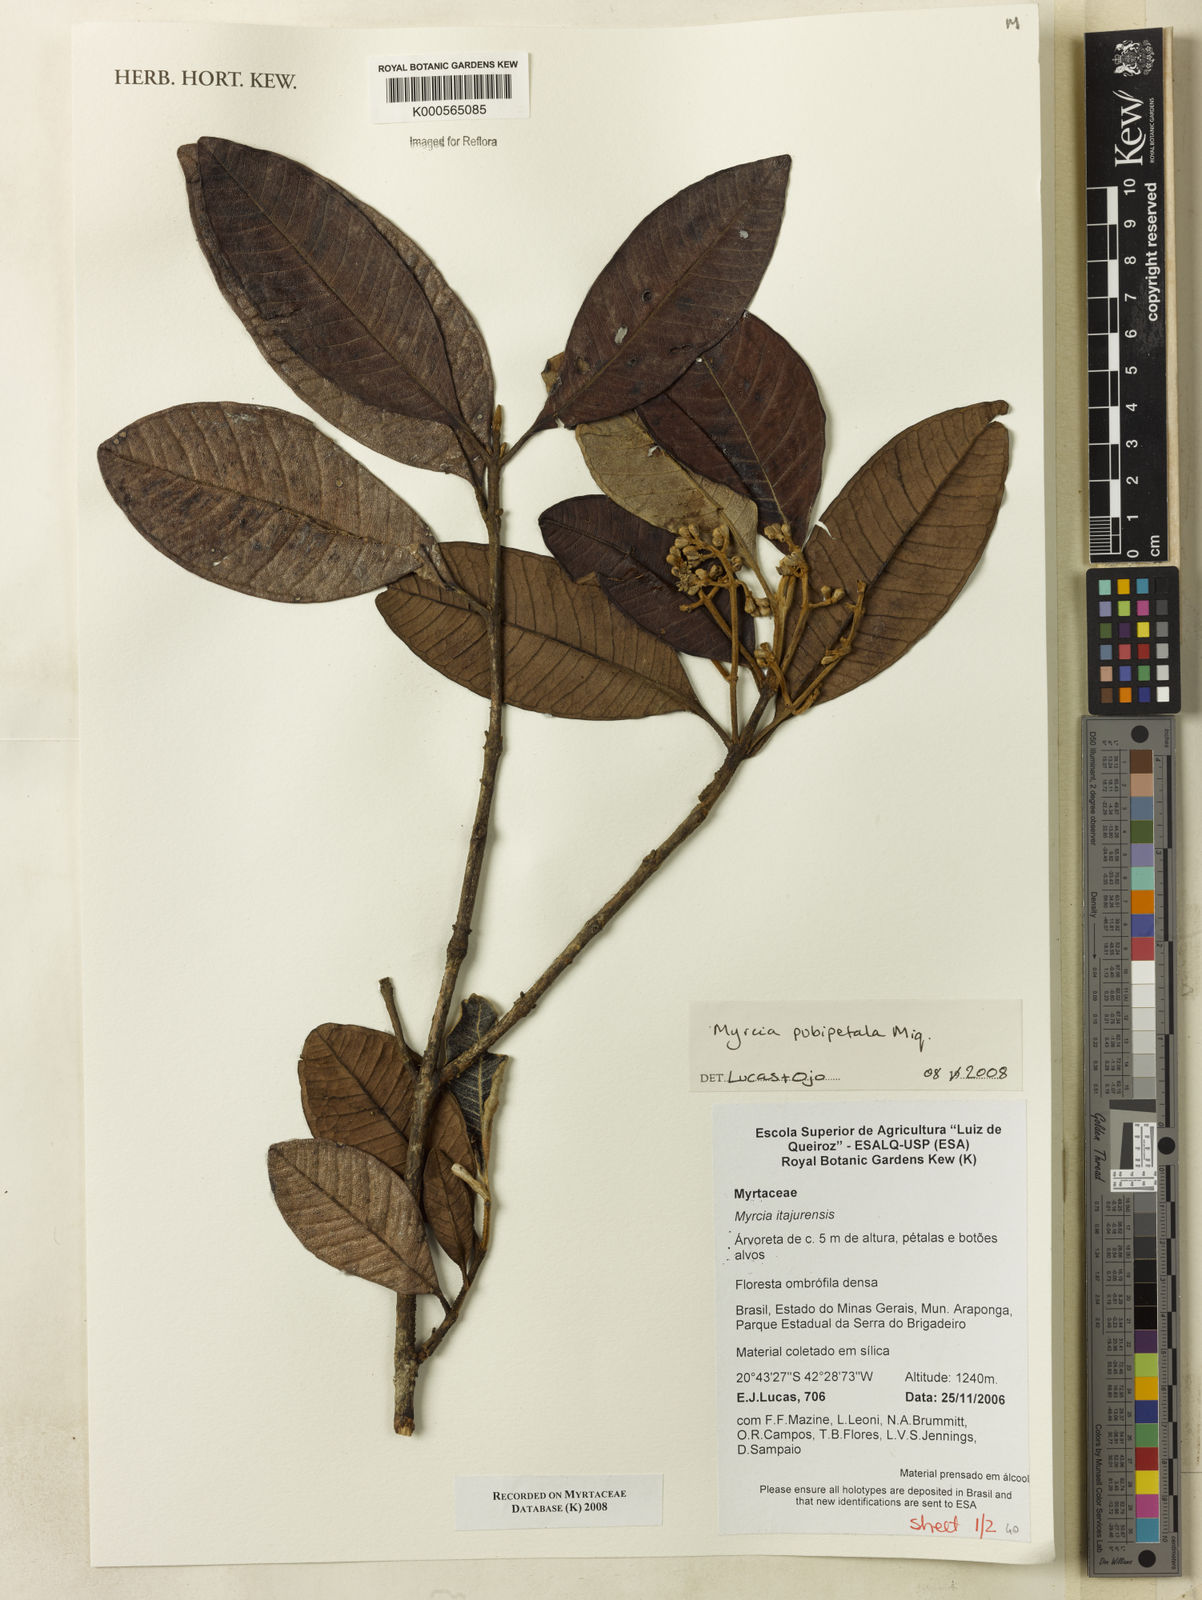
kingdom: Plantae
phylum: Tracheophyta
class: Magnoliopsida
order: Myrtales
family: Myrtaceae
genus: Myrcia
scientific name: Myrcia pubipetala
